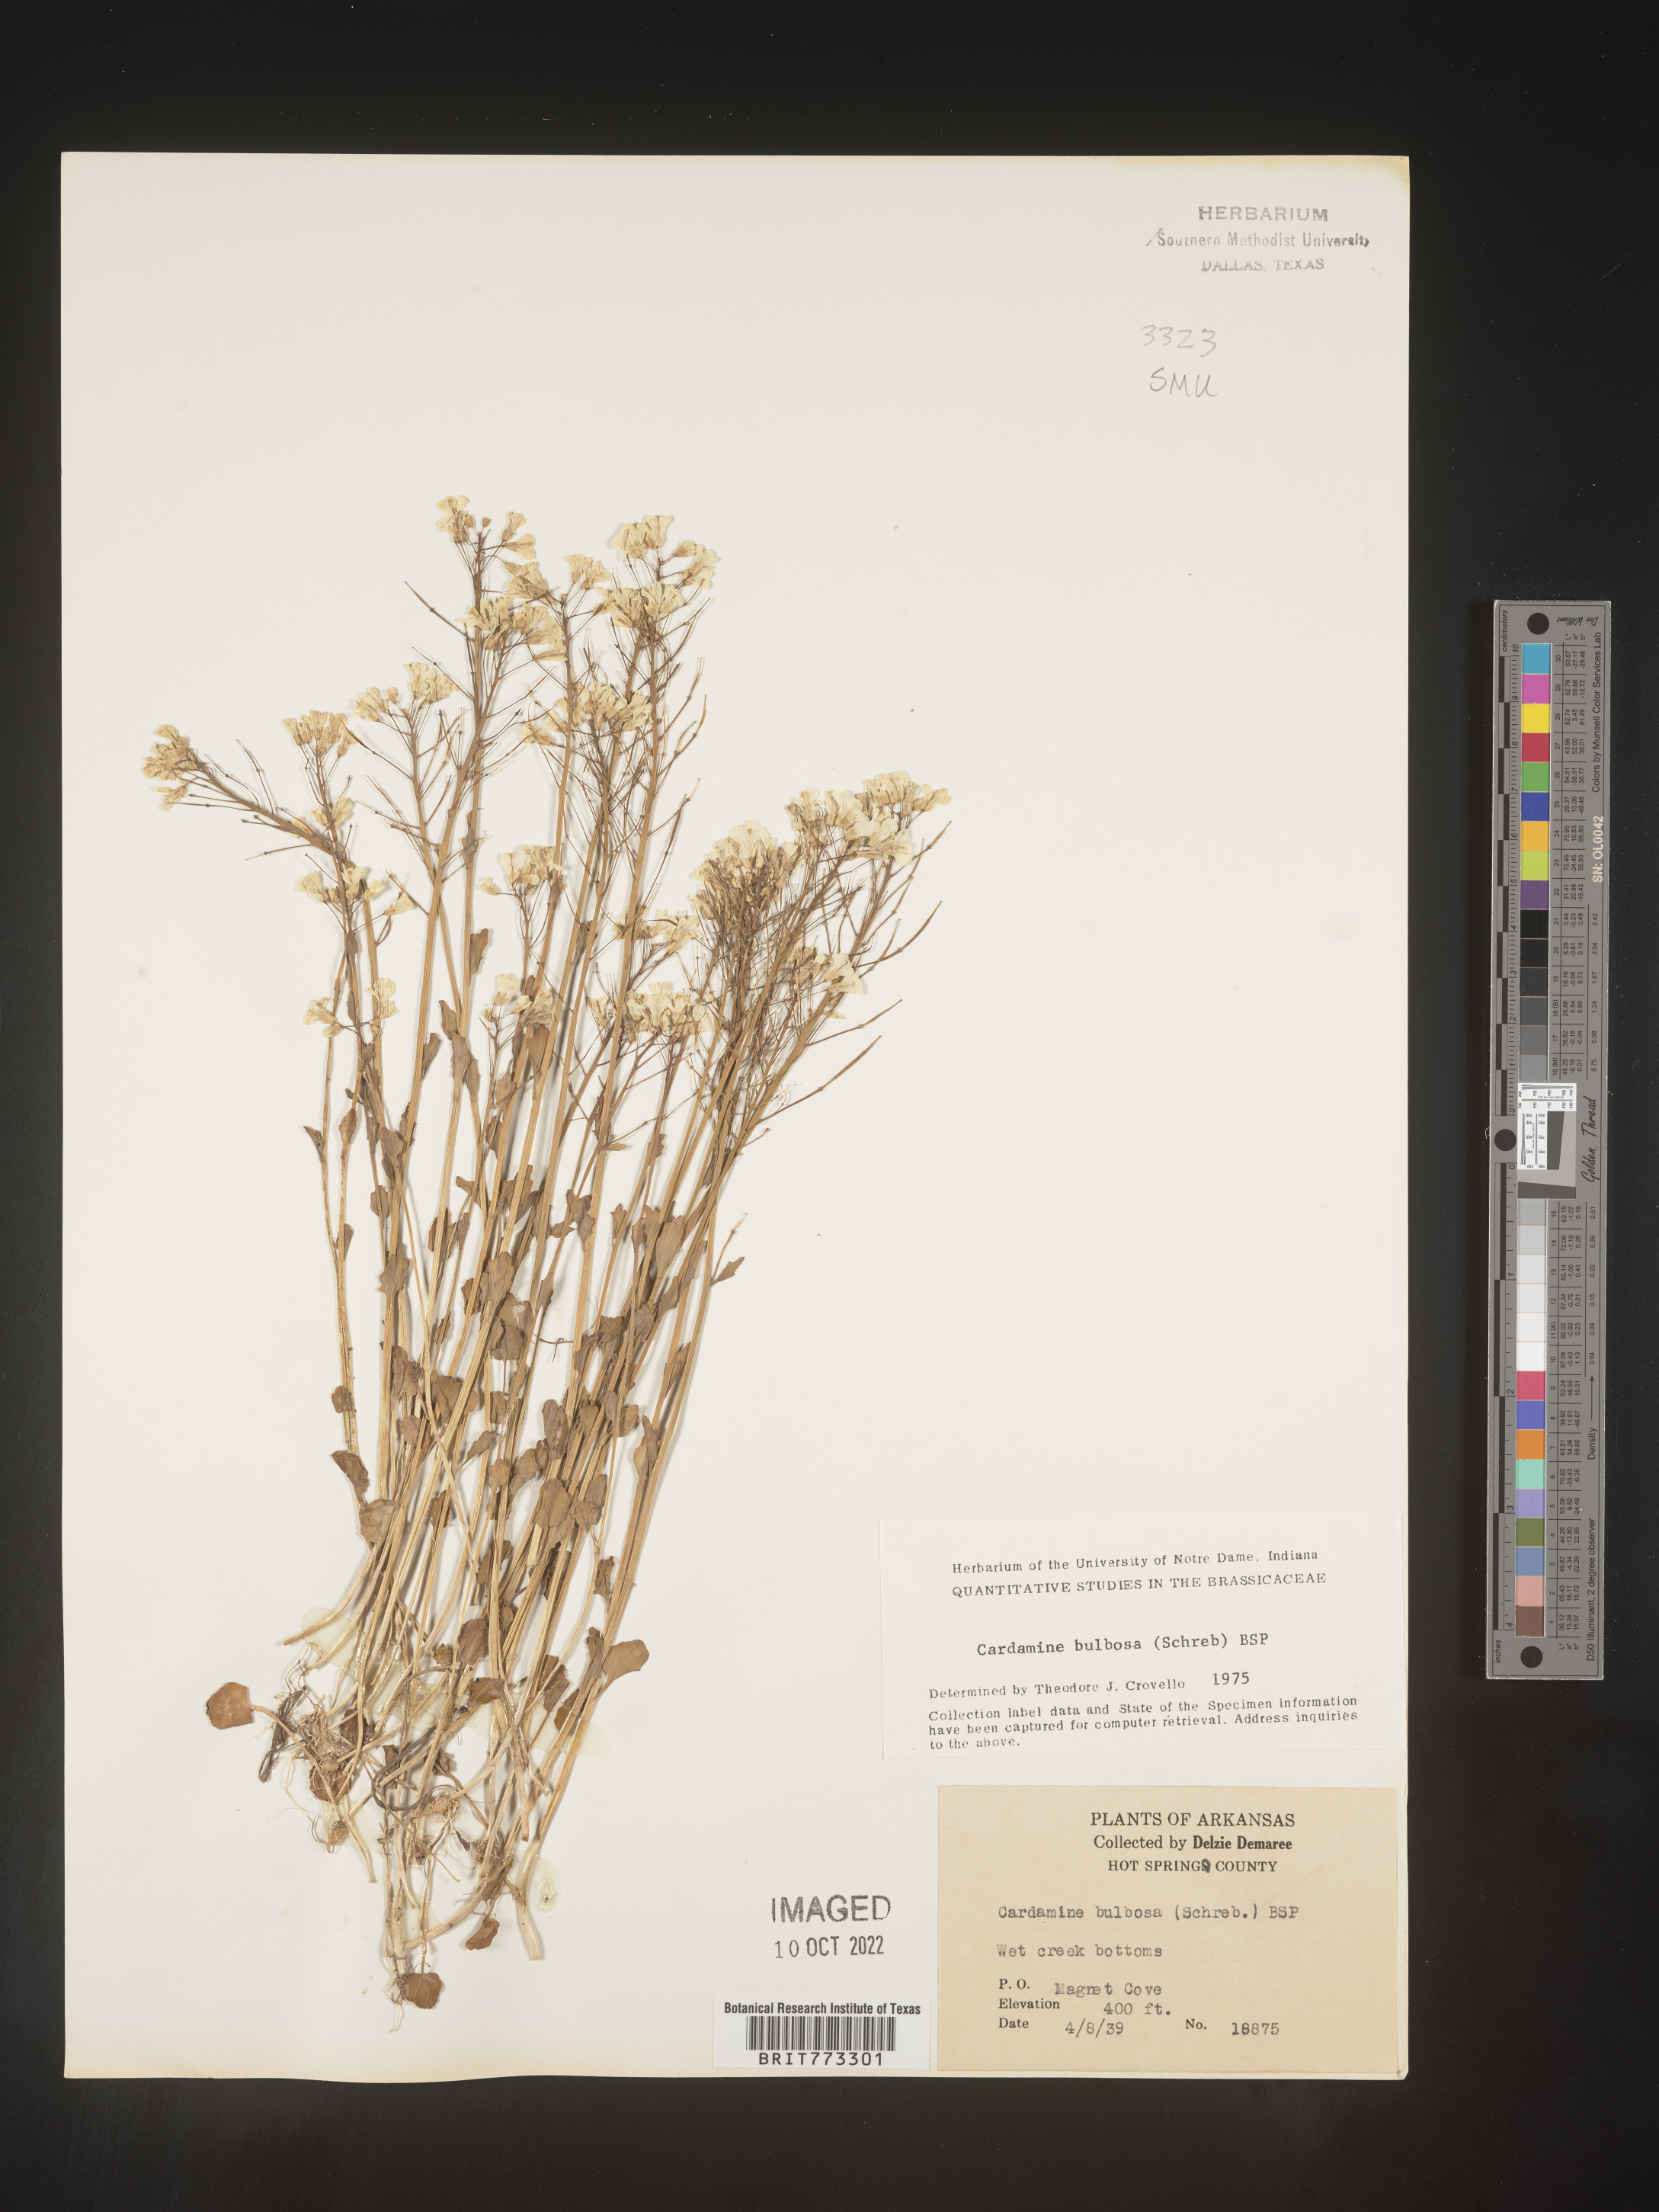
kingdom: Plantae
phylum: Tracheophyta
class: Magnoliopsida
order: Brassicales
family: Brassicaceae
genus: Cardamine
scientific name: Cardamine bulbosa
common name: Spring cress
